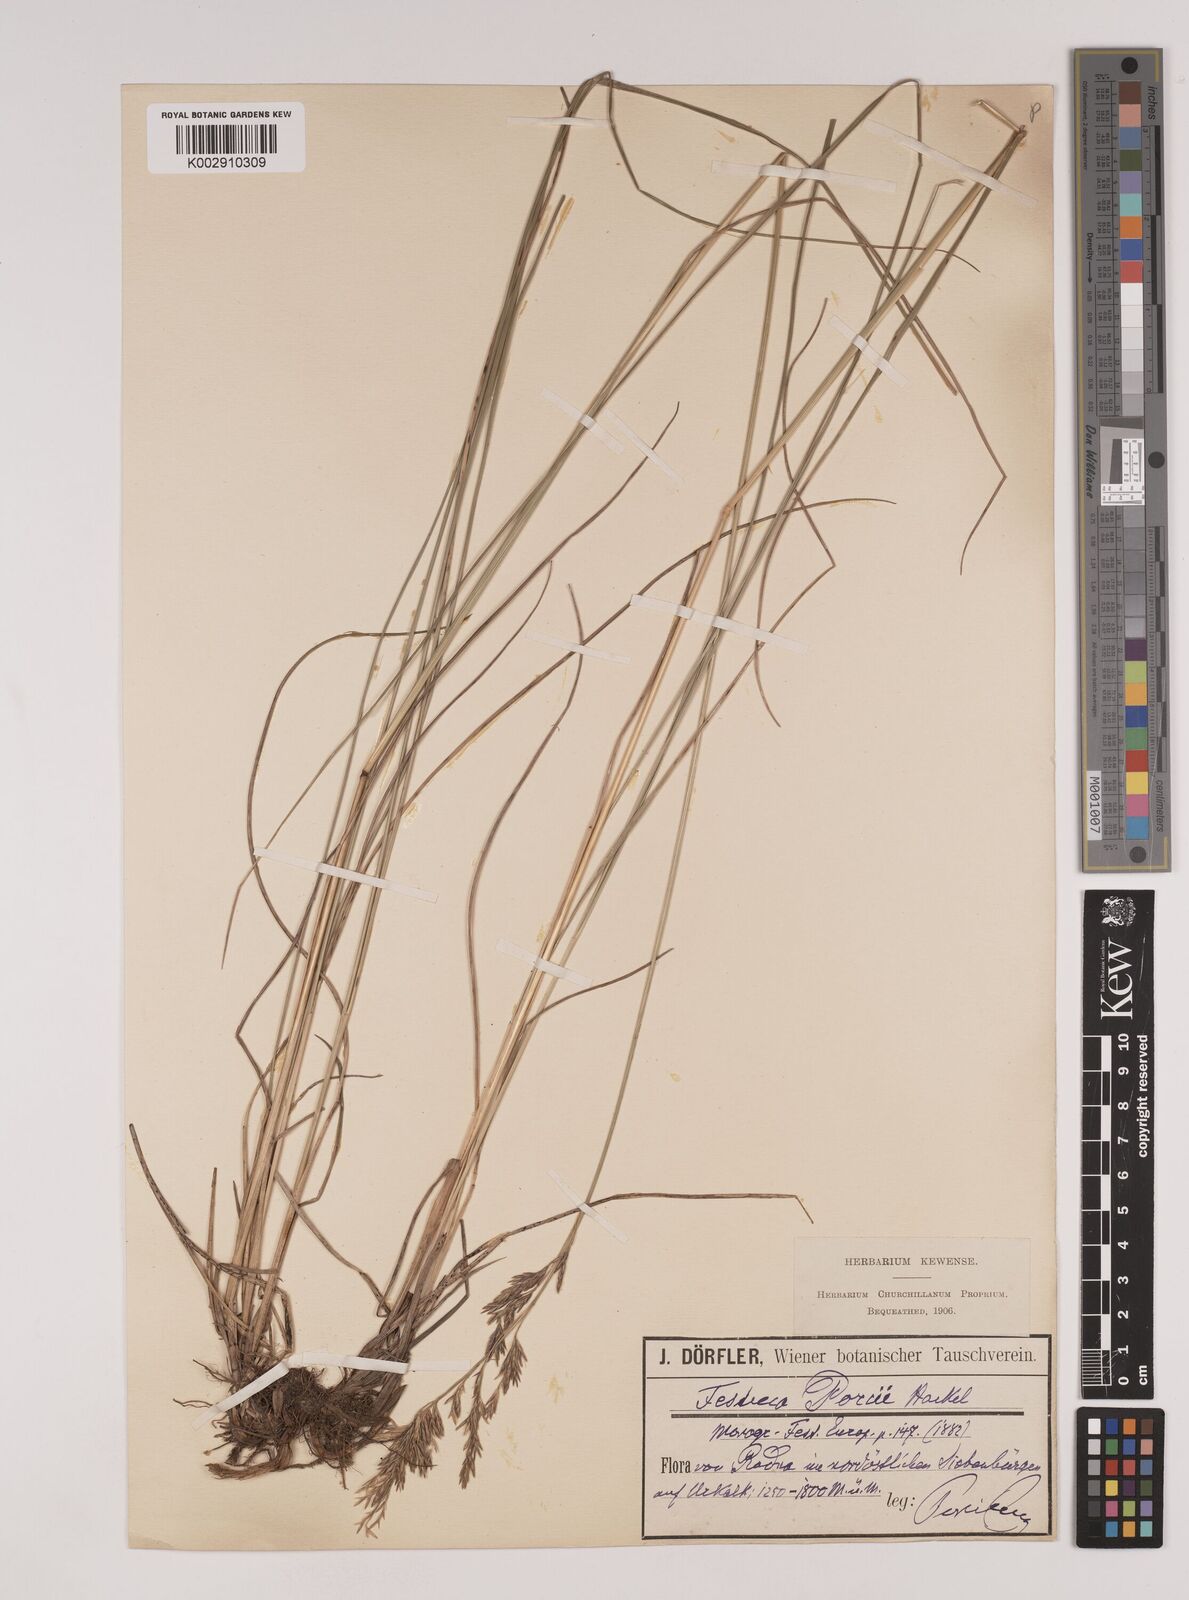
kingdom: Plantae
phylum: Tracheophyta
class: Liliopsida
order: Poales
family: Poaceae
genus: Festuca
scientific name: Festuca porcii
